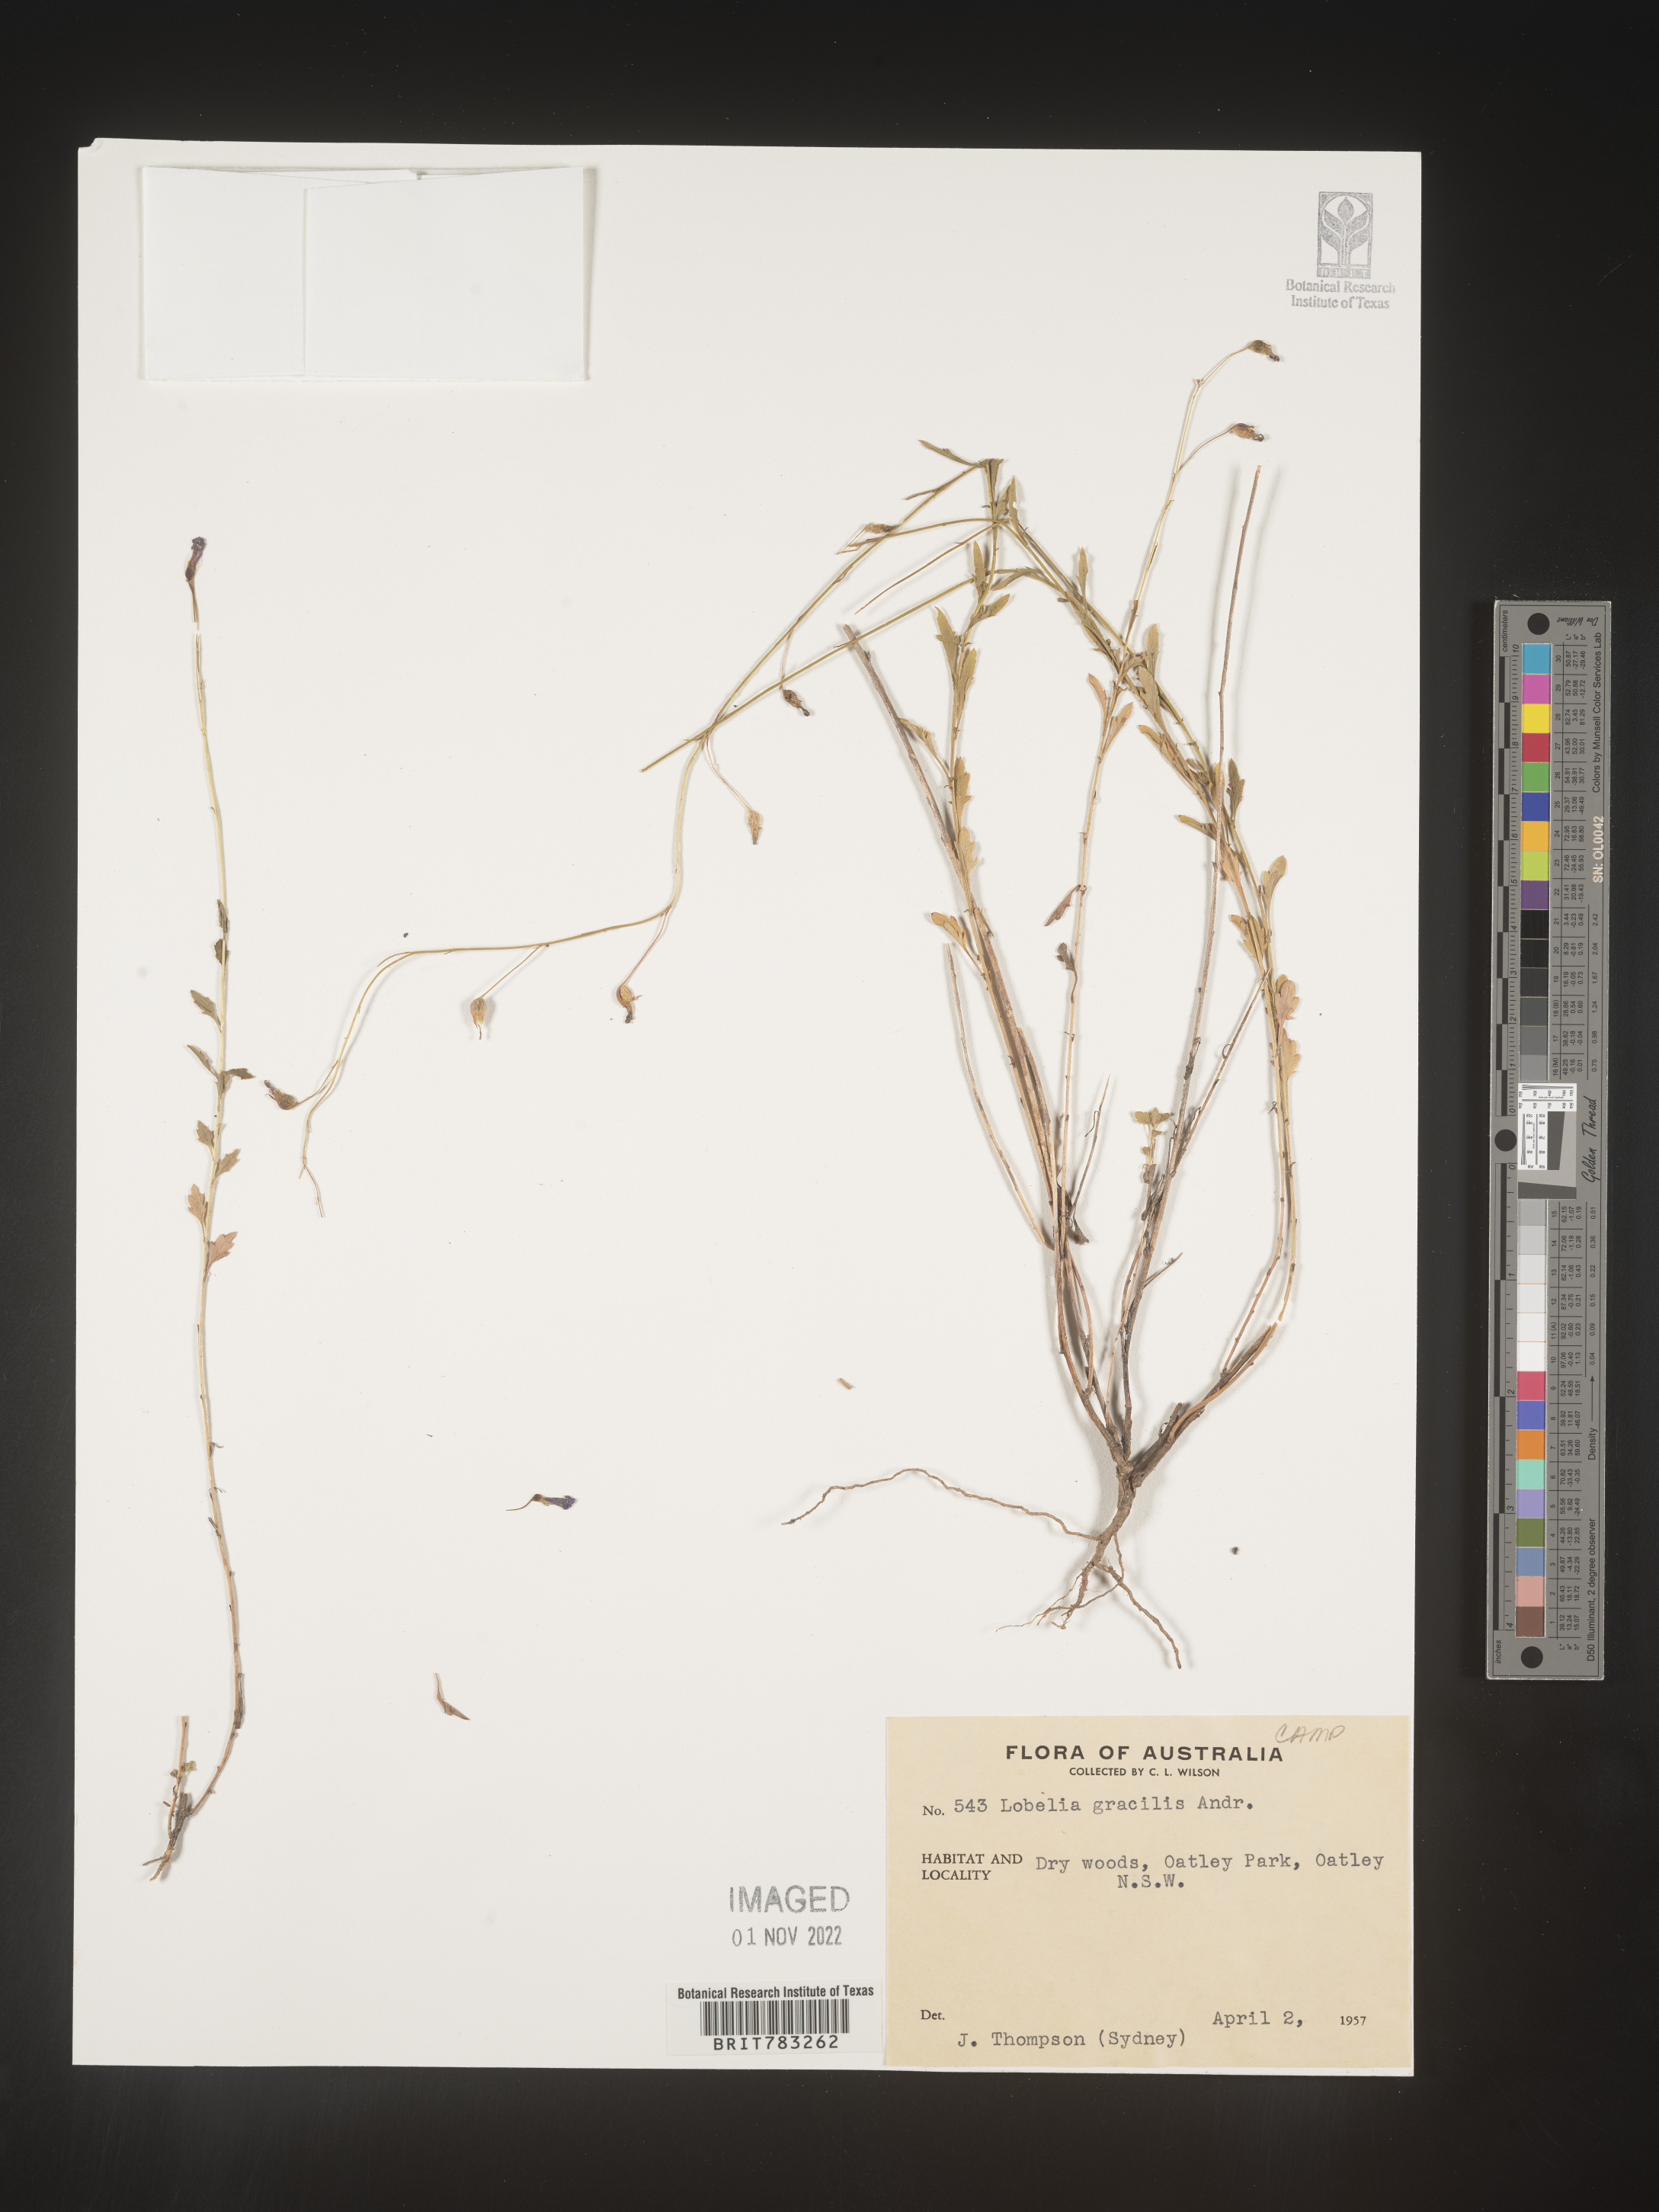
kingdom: Plantae
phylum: Tracheophyta
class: Magnoliopsida
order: Asterales
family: Campanulaceae
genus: Lobelia
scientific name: Lobelia
